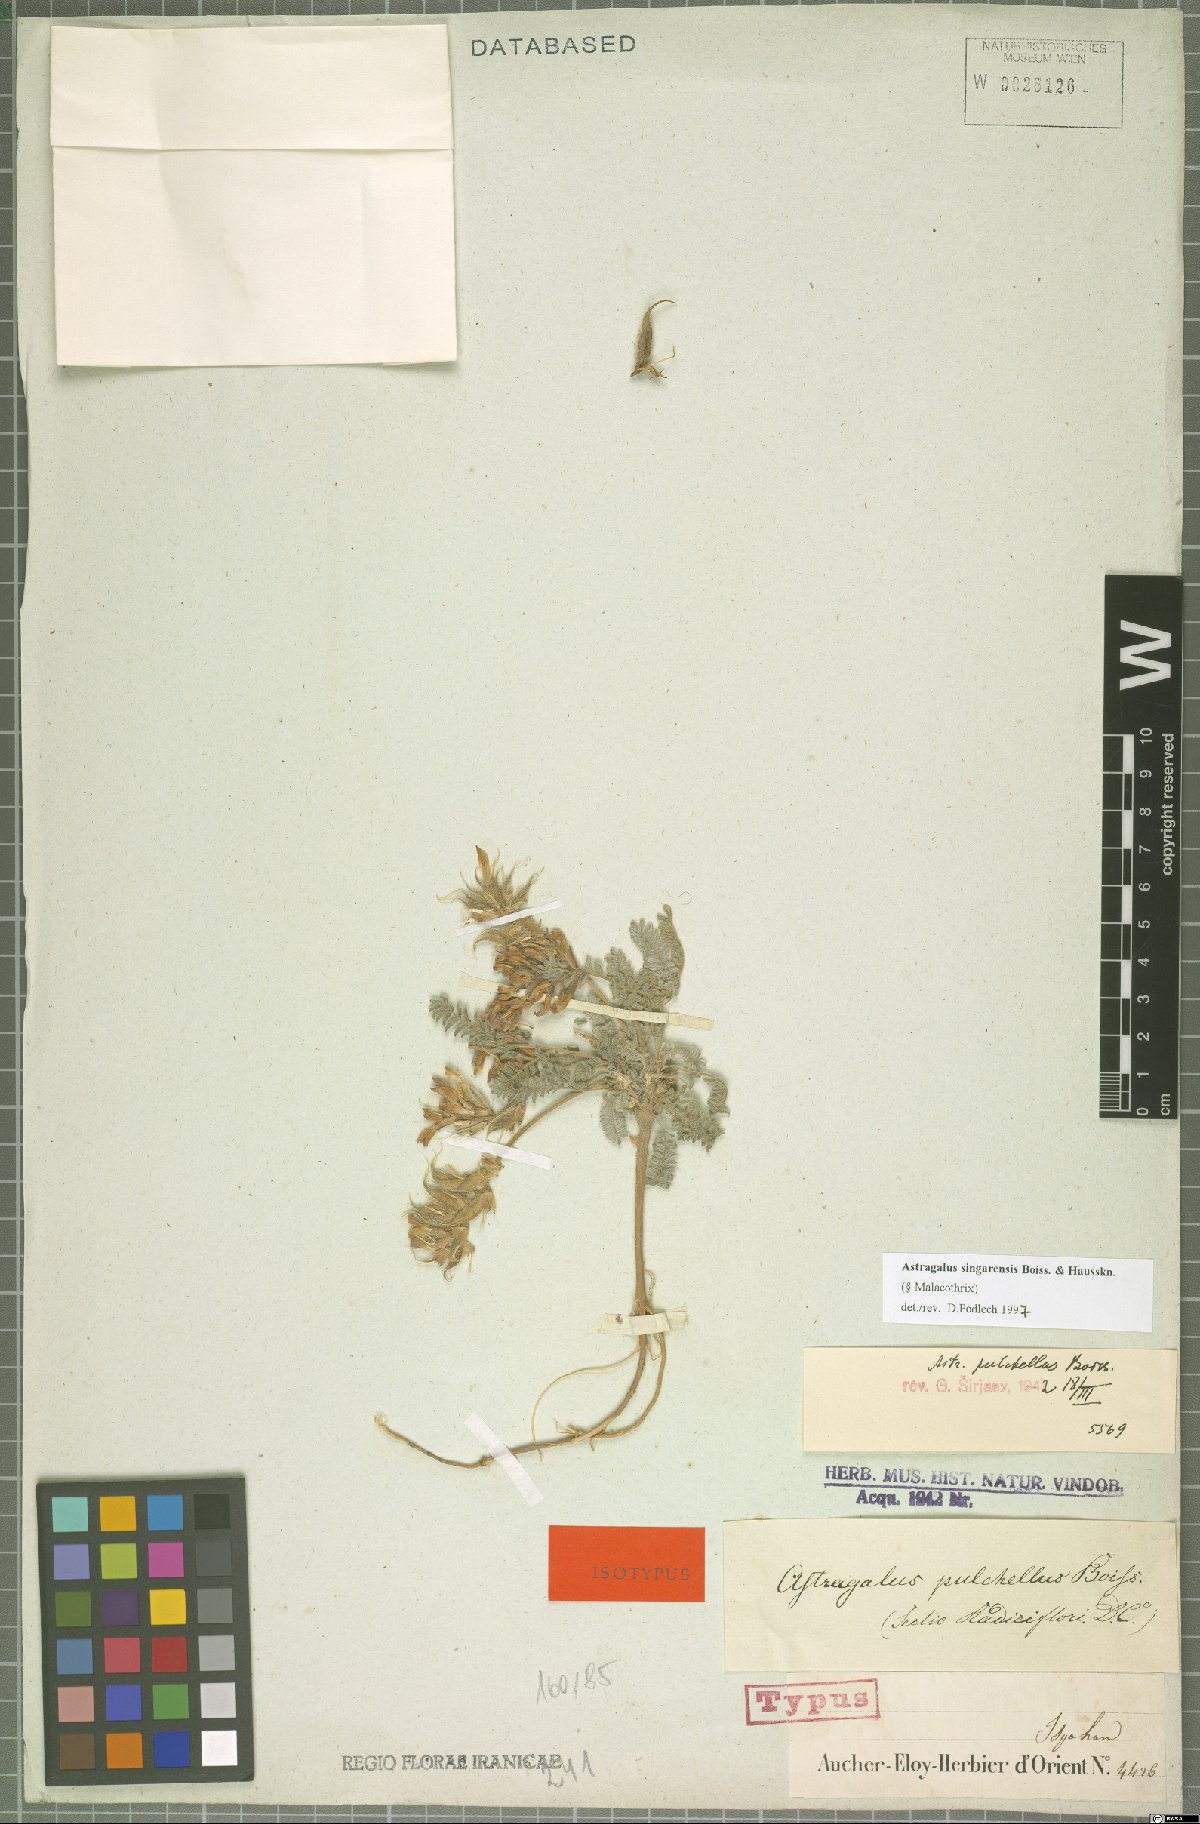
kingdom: Plantae
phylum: Tracheophyta
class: Magnoliopsida
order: Fabales
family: Fabaceae
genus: Astragalus
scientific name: Astragalus singarensis
